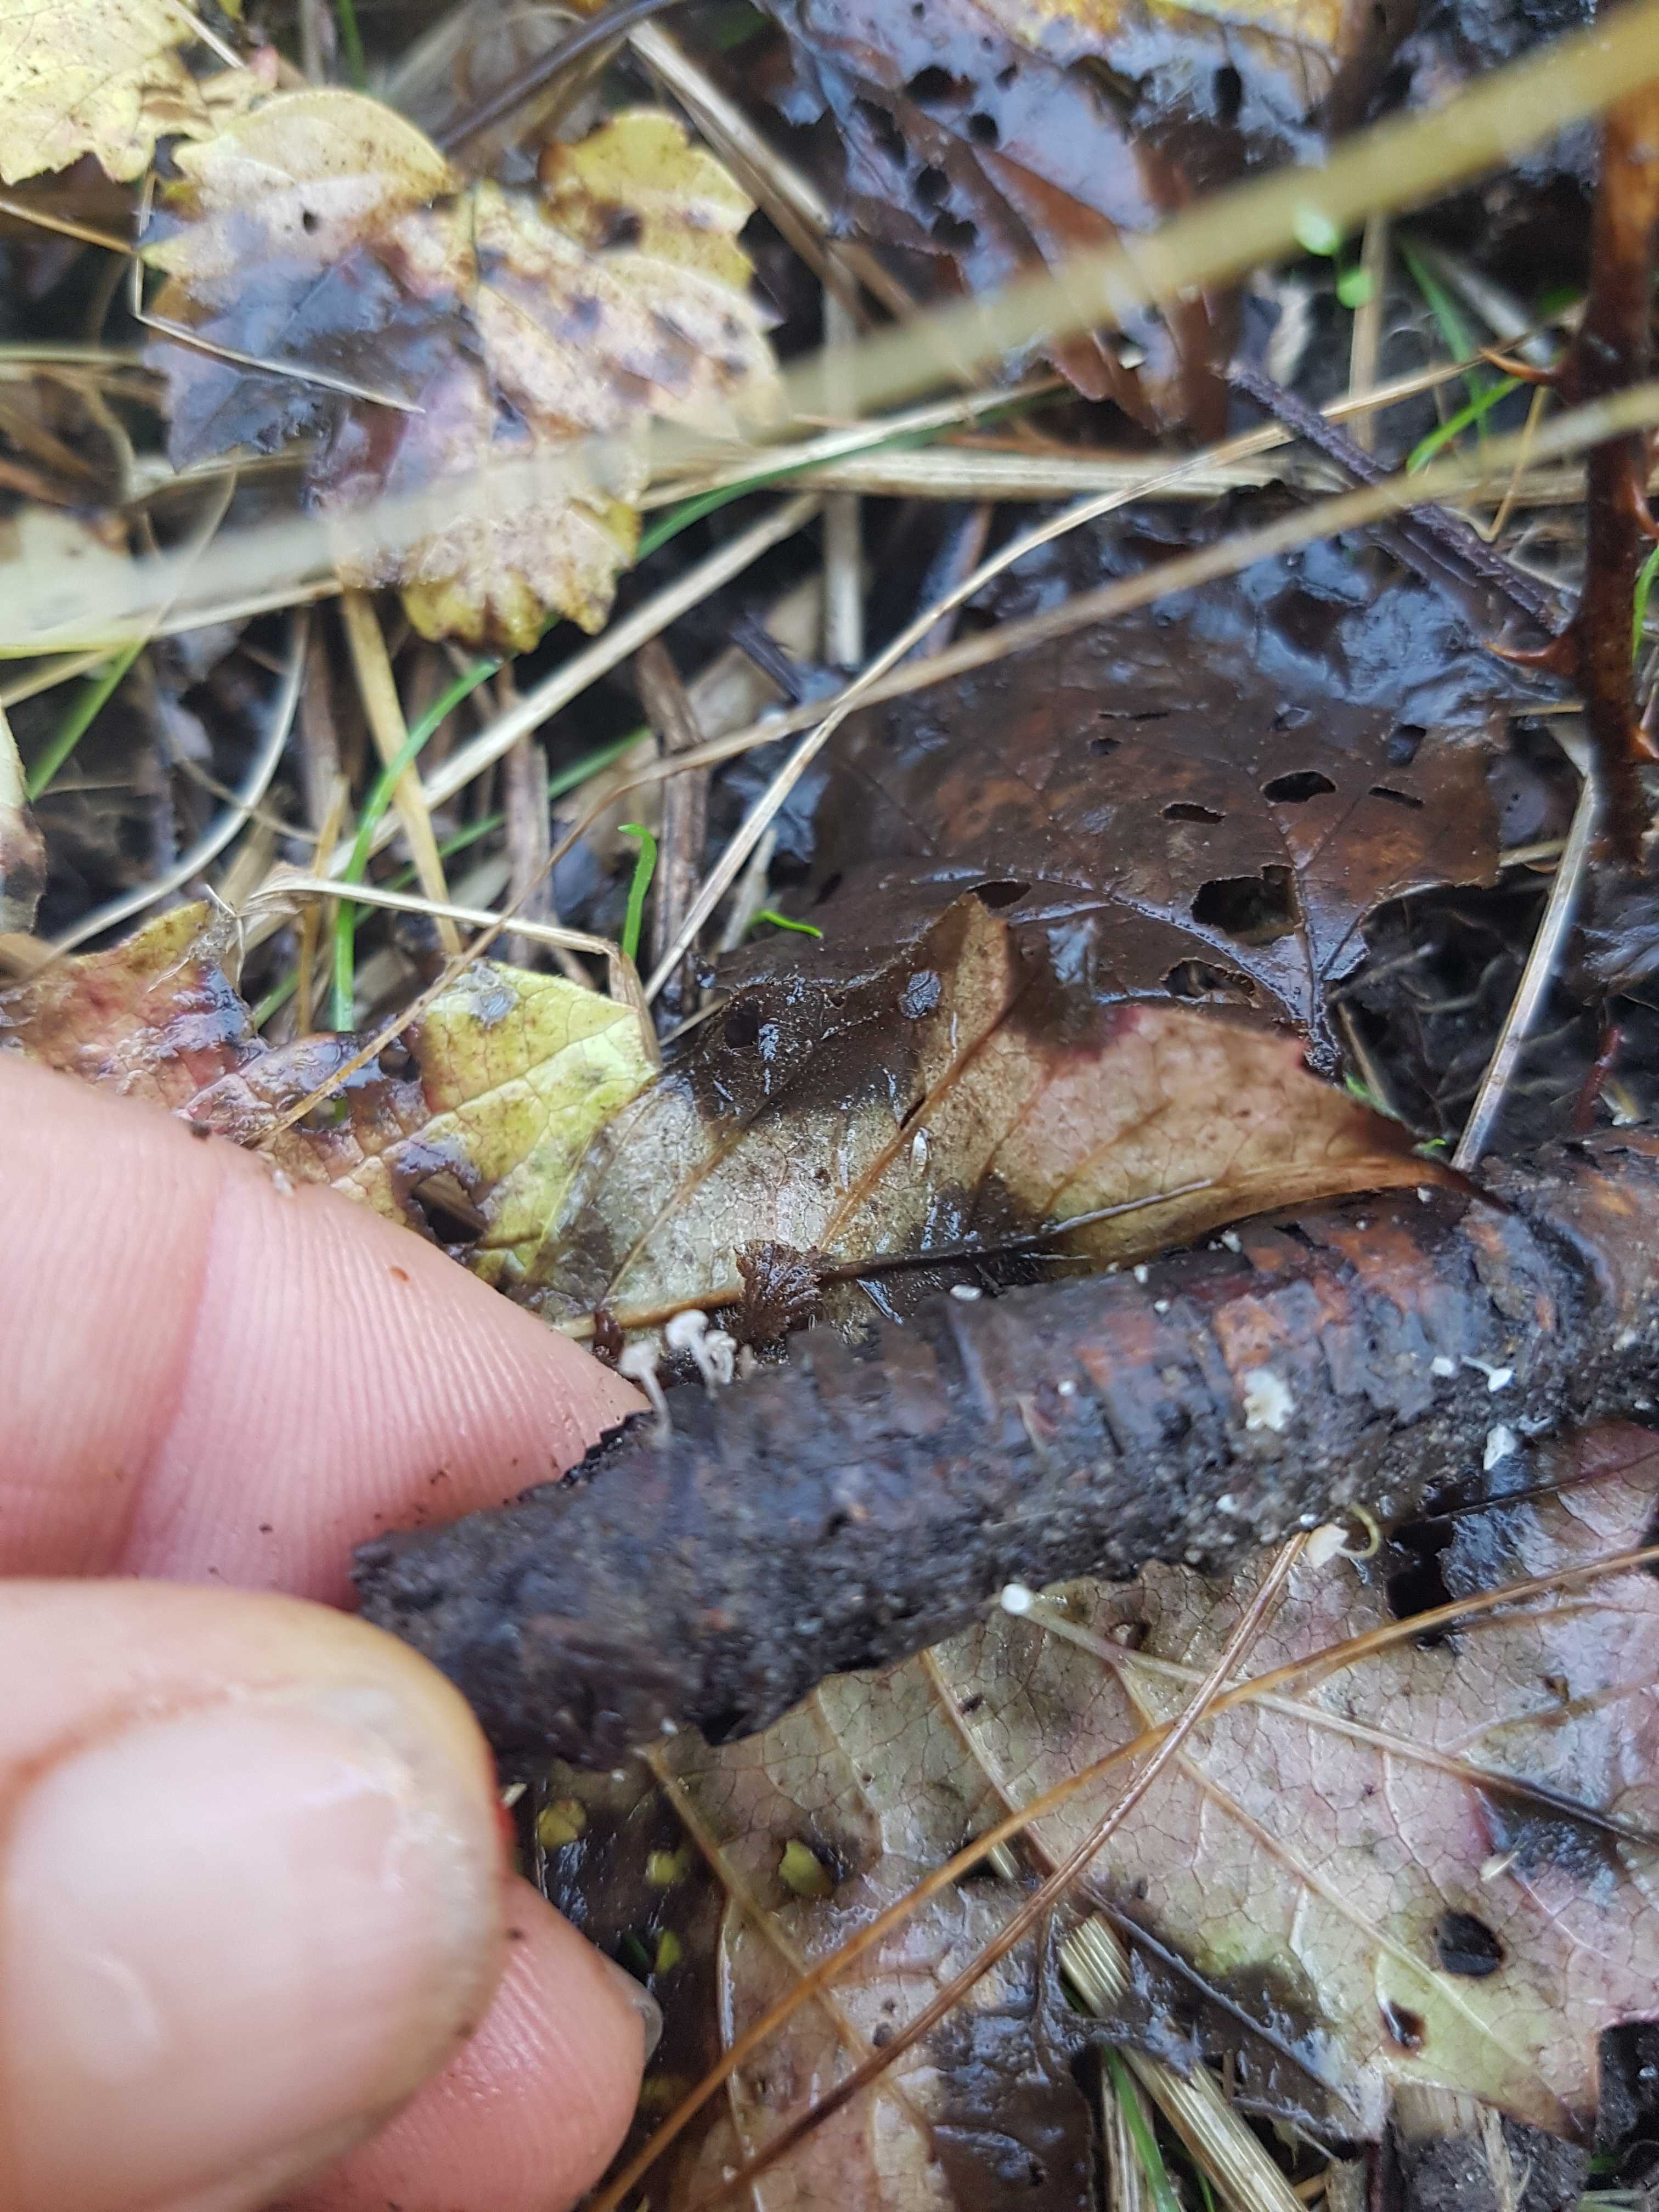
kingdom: Fungi
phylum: Basidiomycota
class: Agaricomycetes
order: Agaricales
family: Porotheleaceae
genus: Phloeomana
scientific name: Phloeomana
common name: huesvamp
